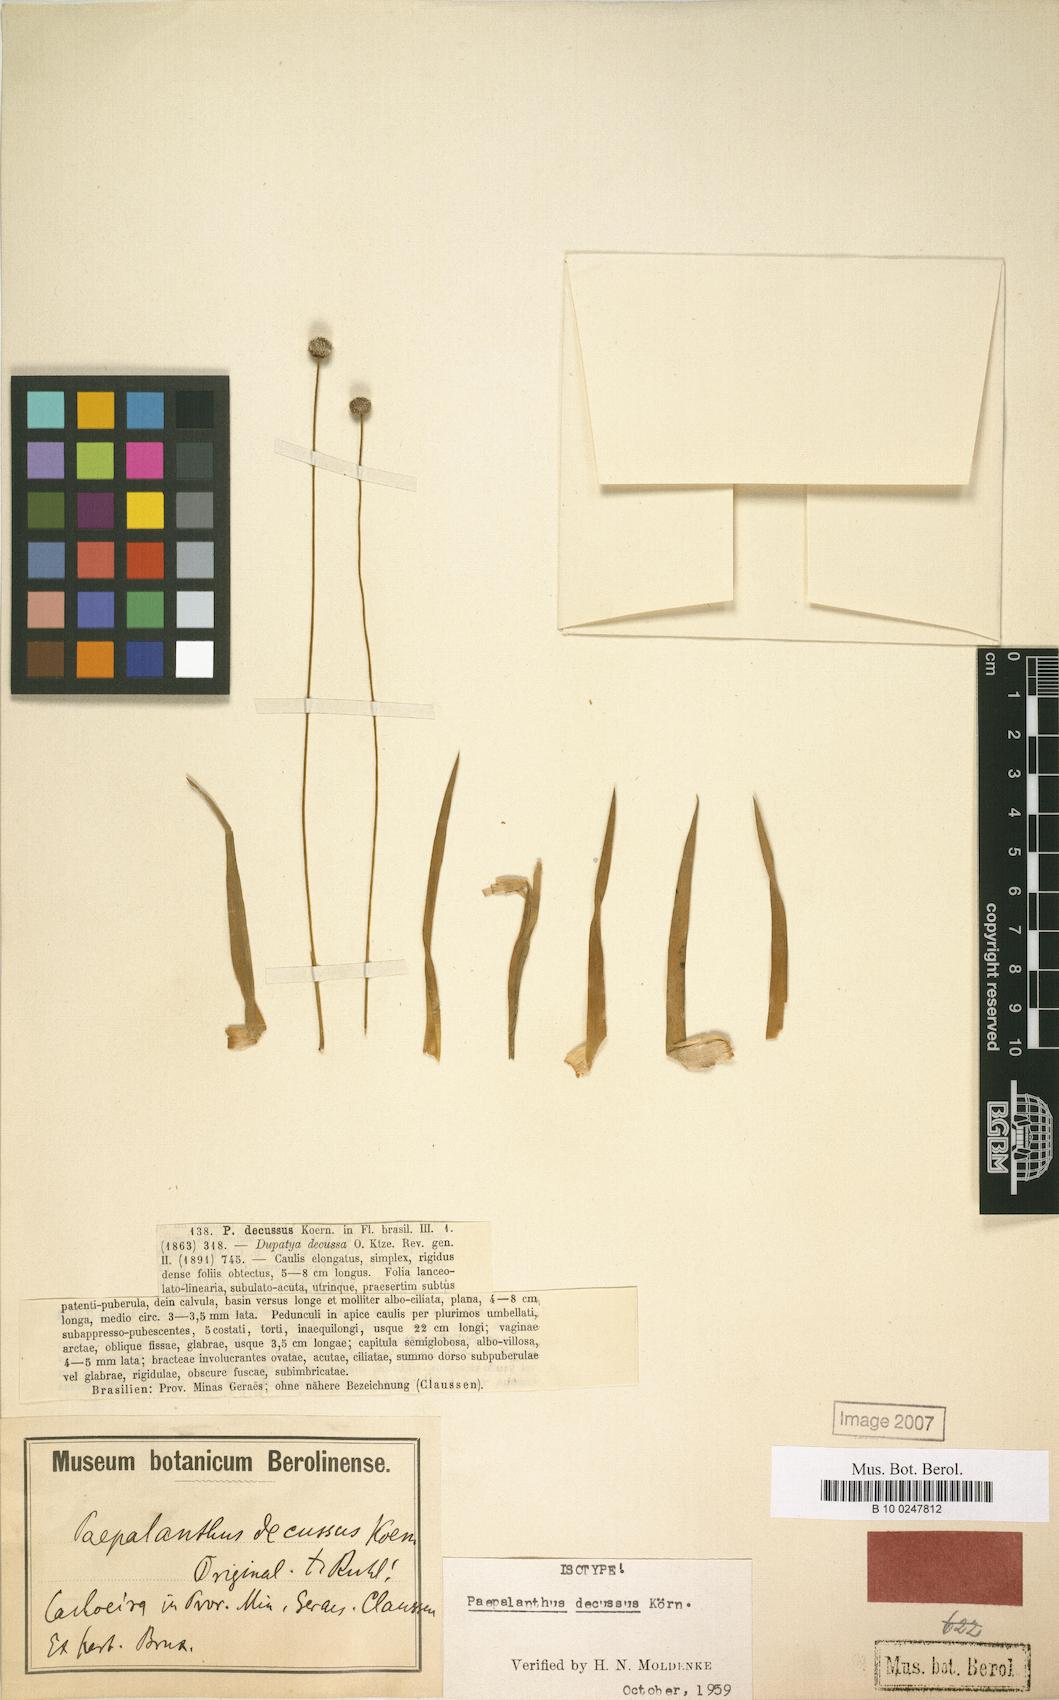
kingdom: Plantae
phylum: Tracheophyta
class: Liliopsida
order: Poales
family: Eriocaulaceae
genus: Paepalanthus
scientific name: Paepalanthus decussus
